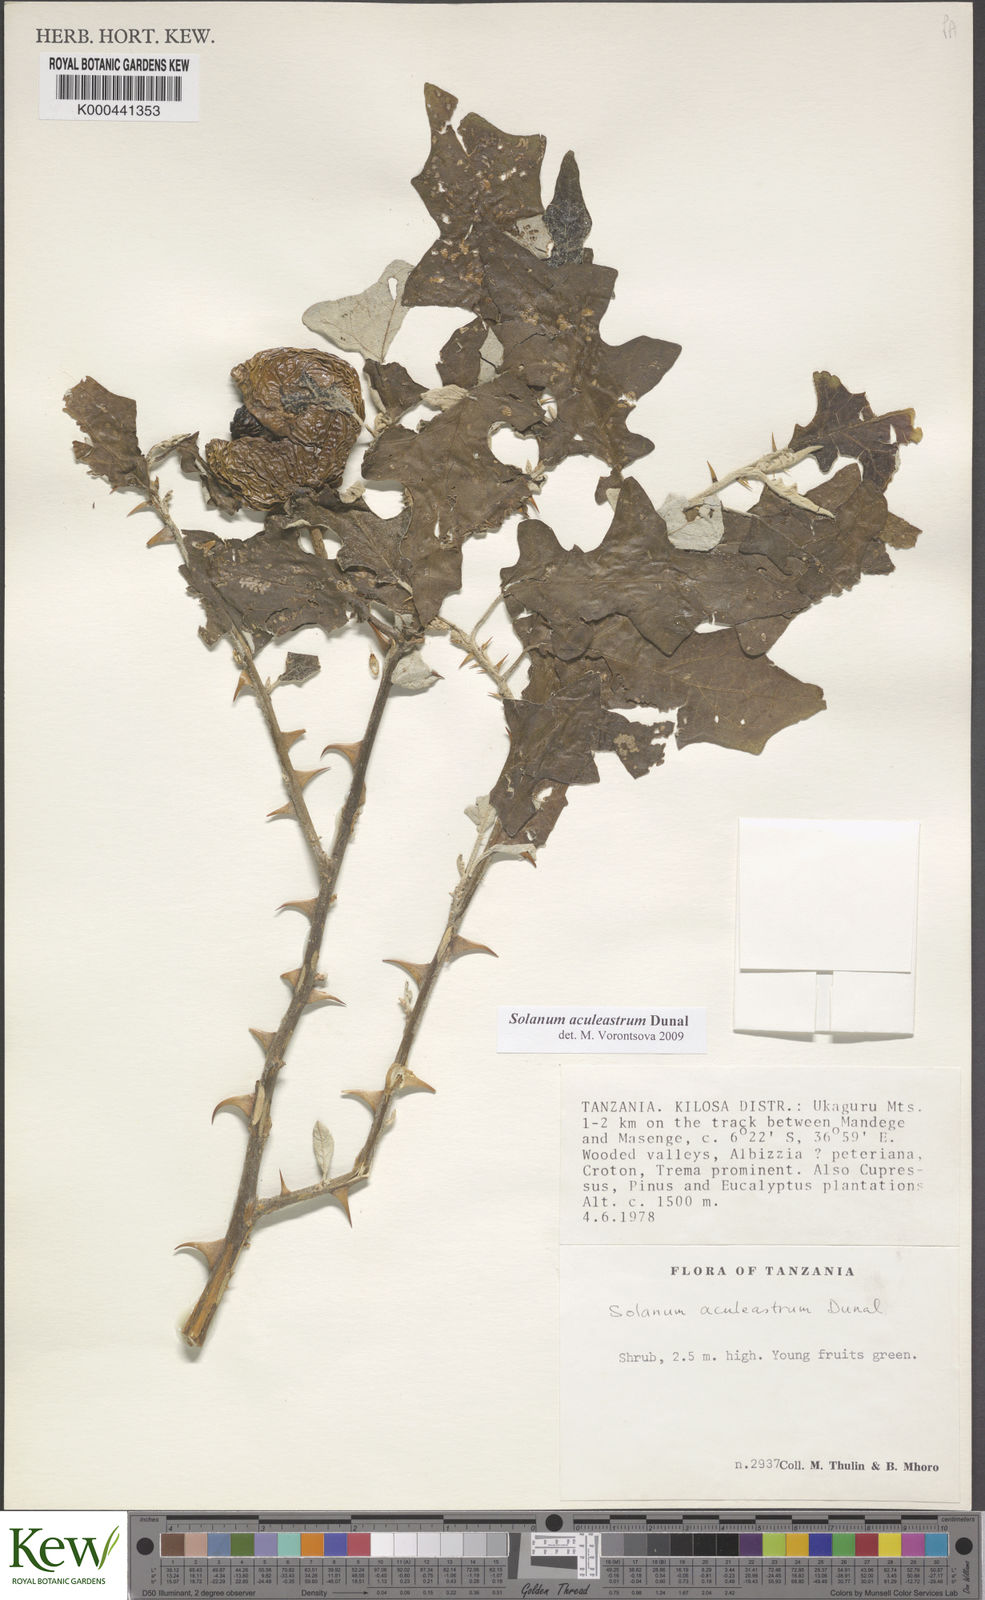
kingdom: Plantae
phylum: Tracheophyta
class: Magnoliopsida
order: Solanales
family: Solanaceae
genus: Solanum
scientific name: Solanum aculeastrum
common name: Goat bitter-apple
